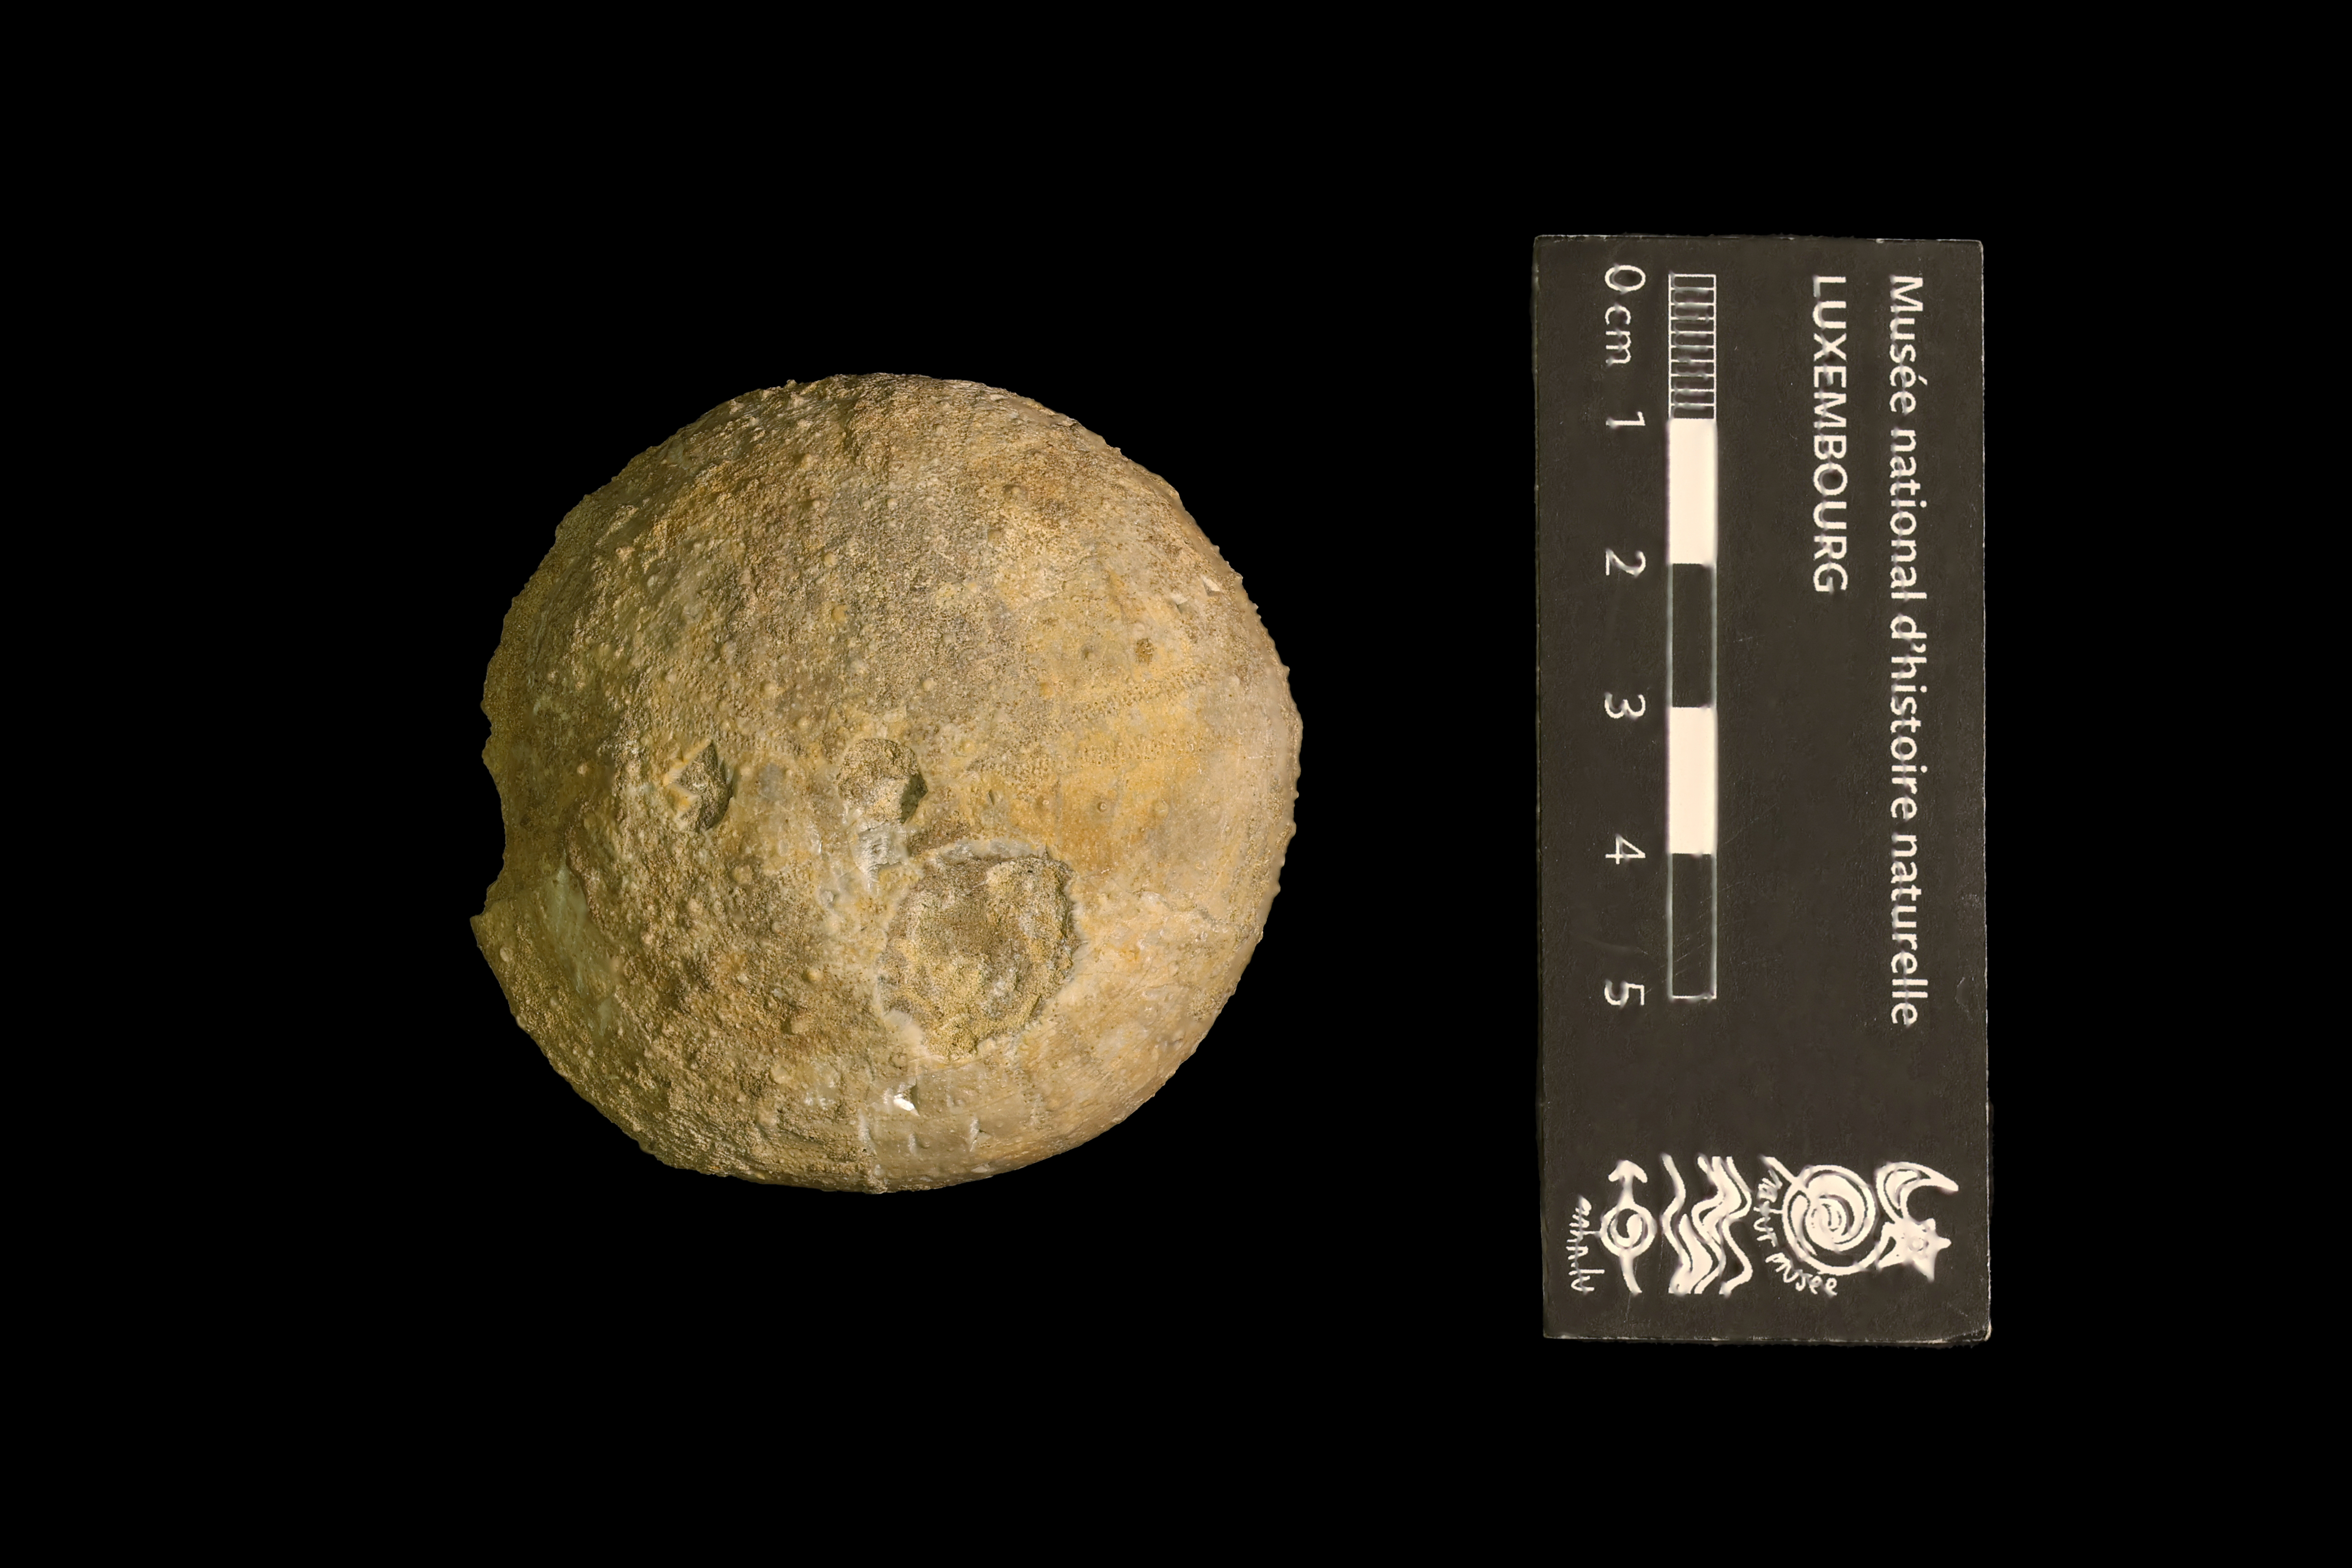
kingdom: Animalia
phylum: Echinodermata
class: Echinoidea
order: Holectypoida
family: Holectypidae
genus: Philolectypus
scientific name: Philolectypus
